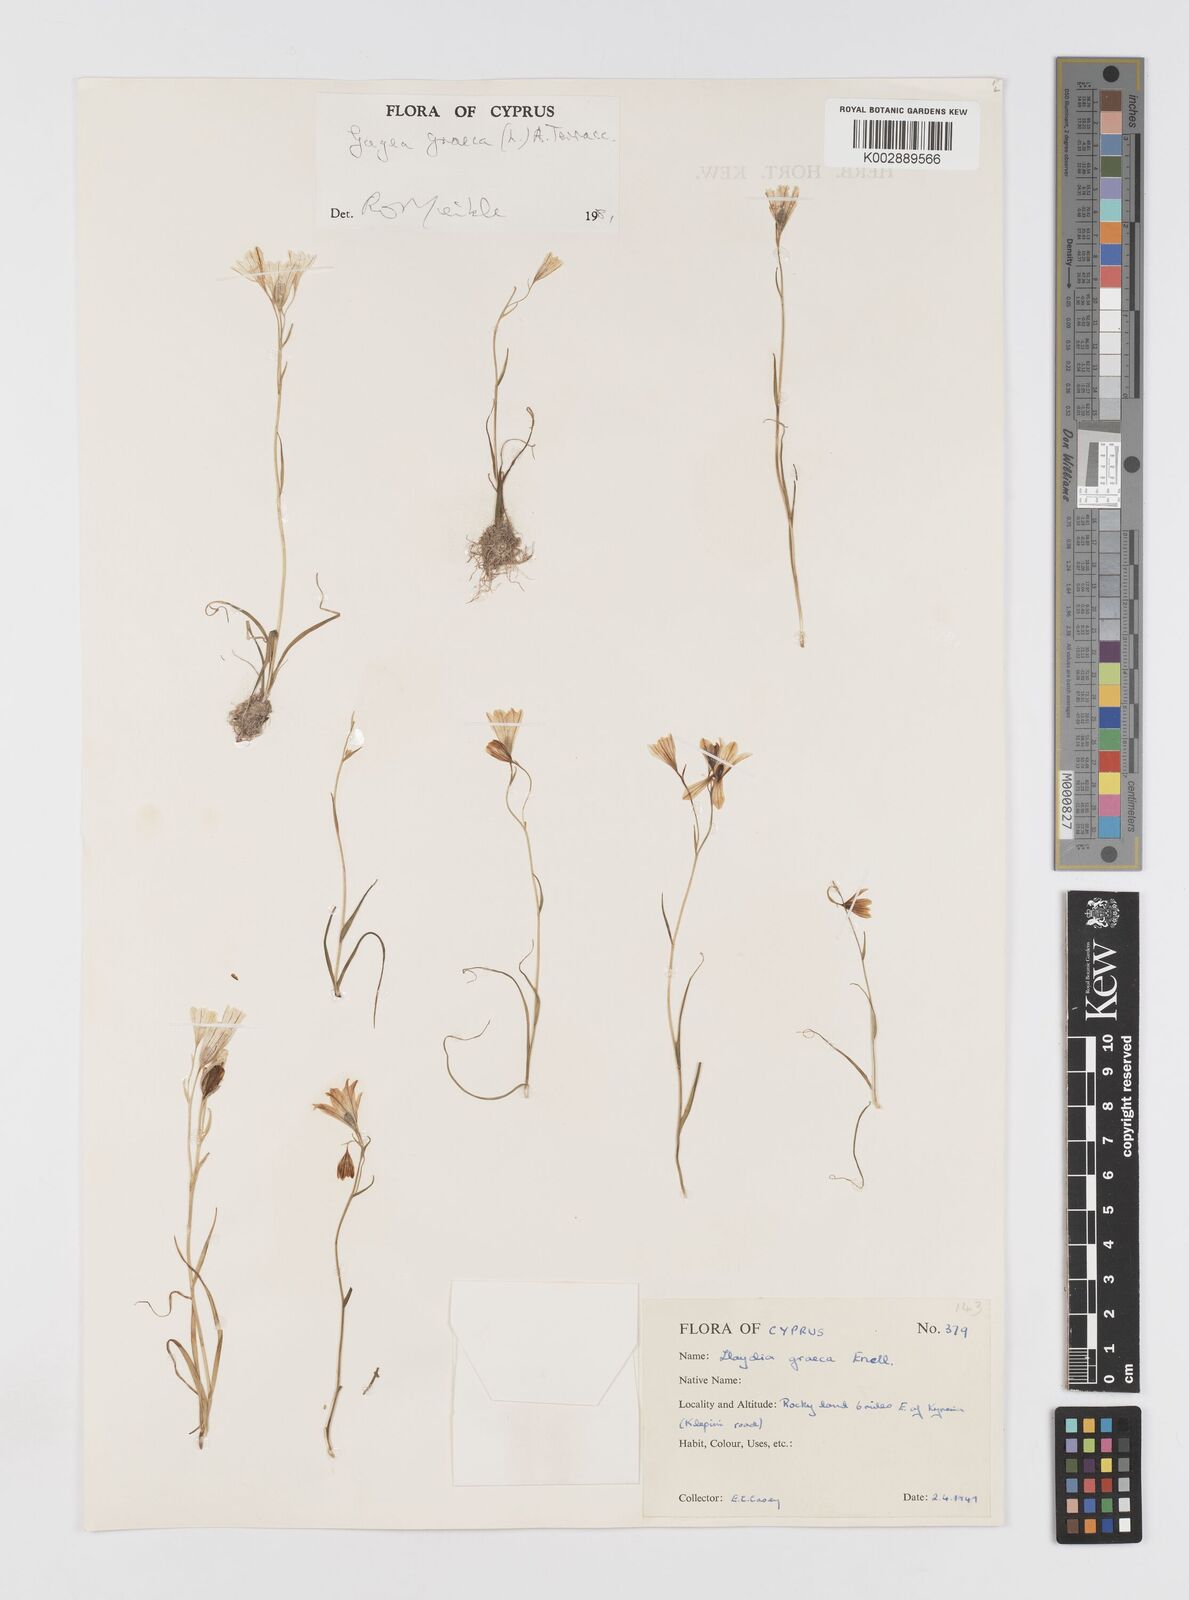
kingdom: Plantae
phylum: Tracheophyta
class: Liliopsida
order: Liliales
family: Liliaceae
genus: Gagea
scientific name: Gagea graeca
